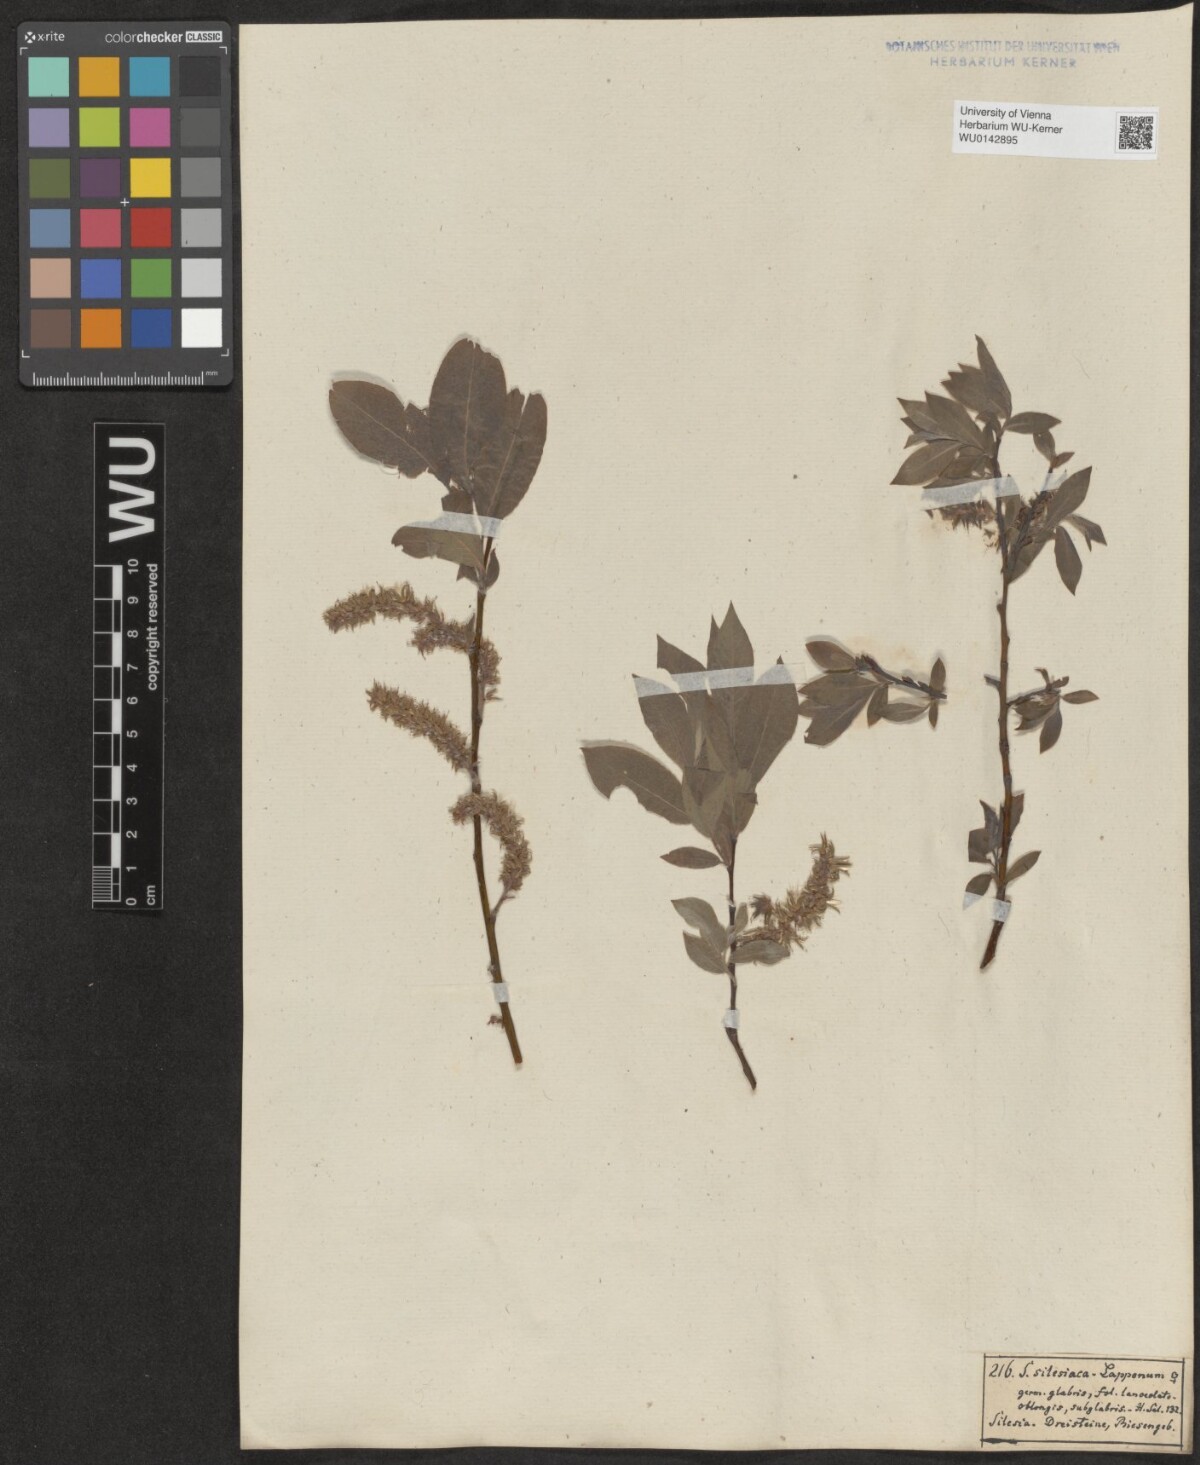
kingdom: Plantae
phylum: Tracheophyta
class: Magnoliopsida
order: Malpighiales
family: Salicaceae
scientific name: Salicaceae
